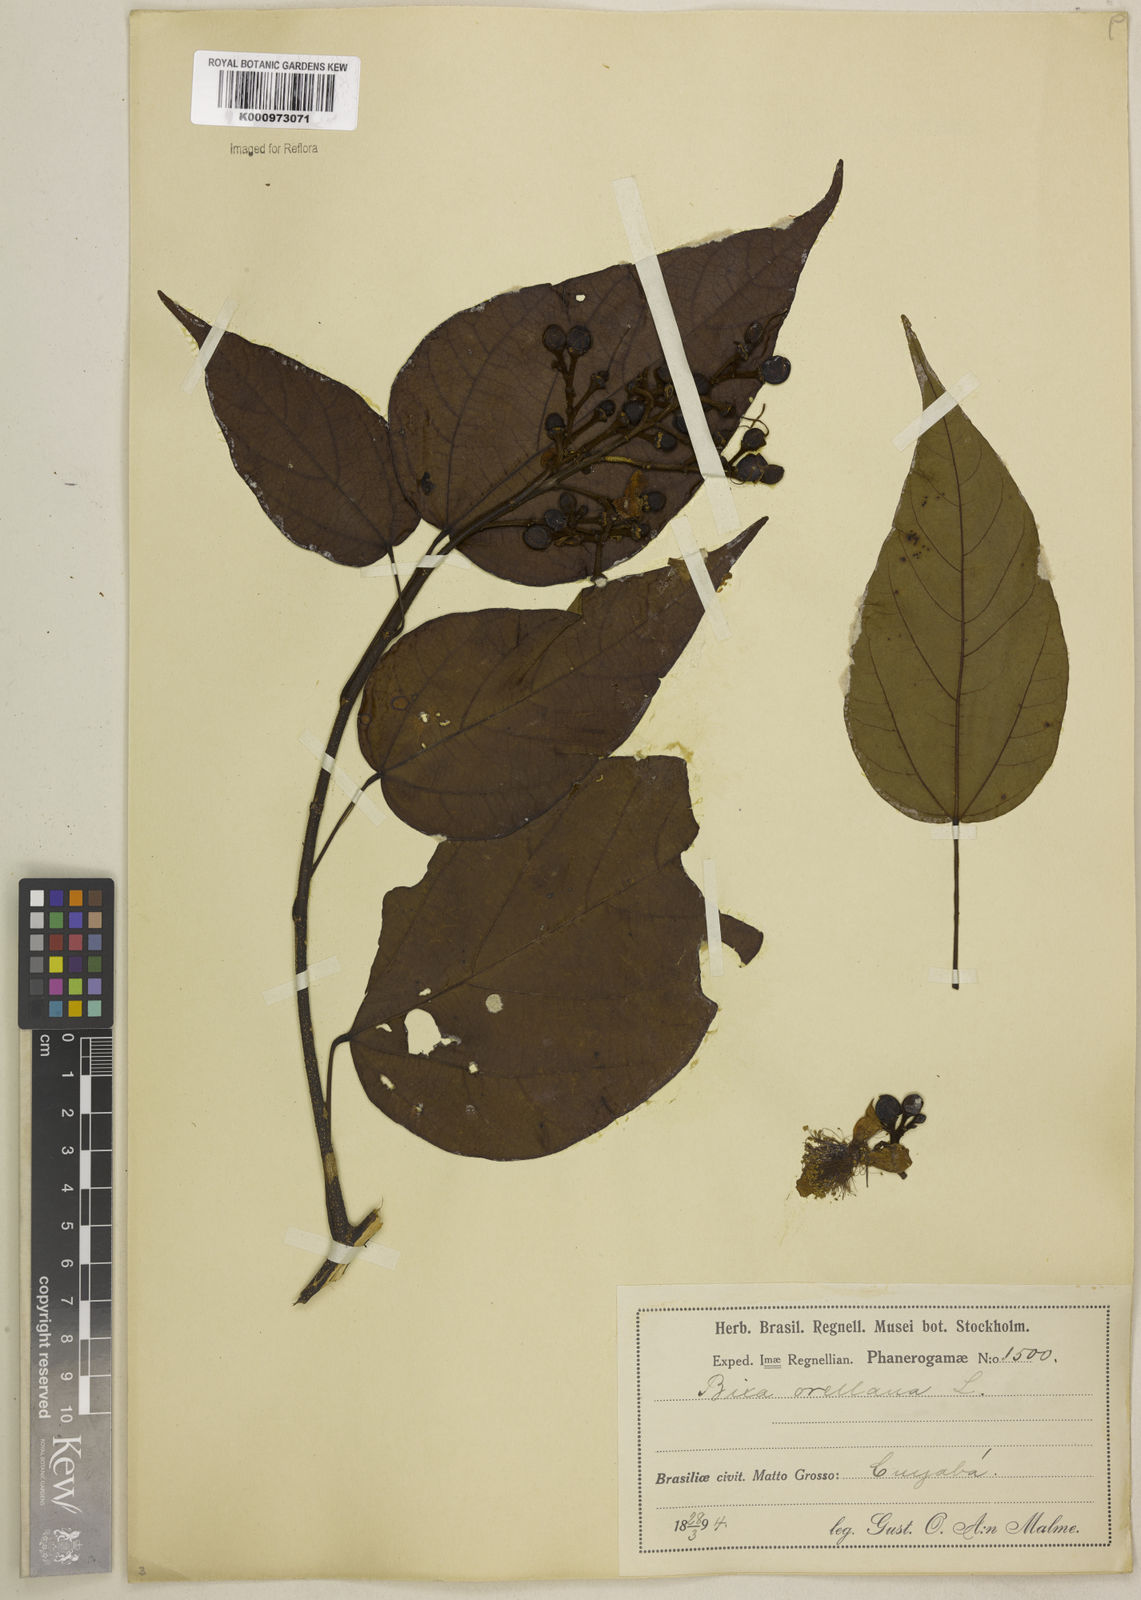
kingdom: Plantae
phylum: Tracheophyta
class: Magnoliopsida
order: Malvales
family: Bixaceae
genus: Bixa
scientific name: Bixa orellana
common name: Lipsticktree
